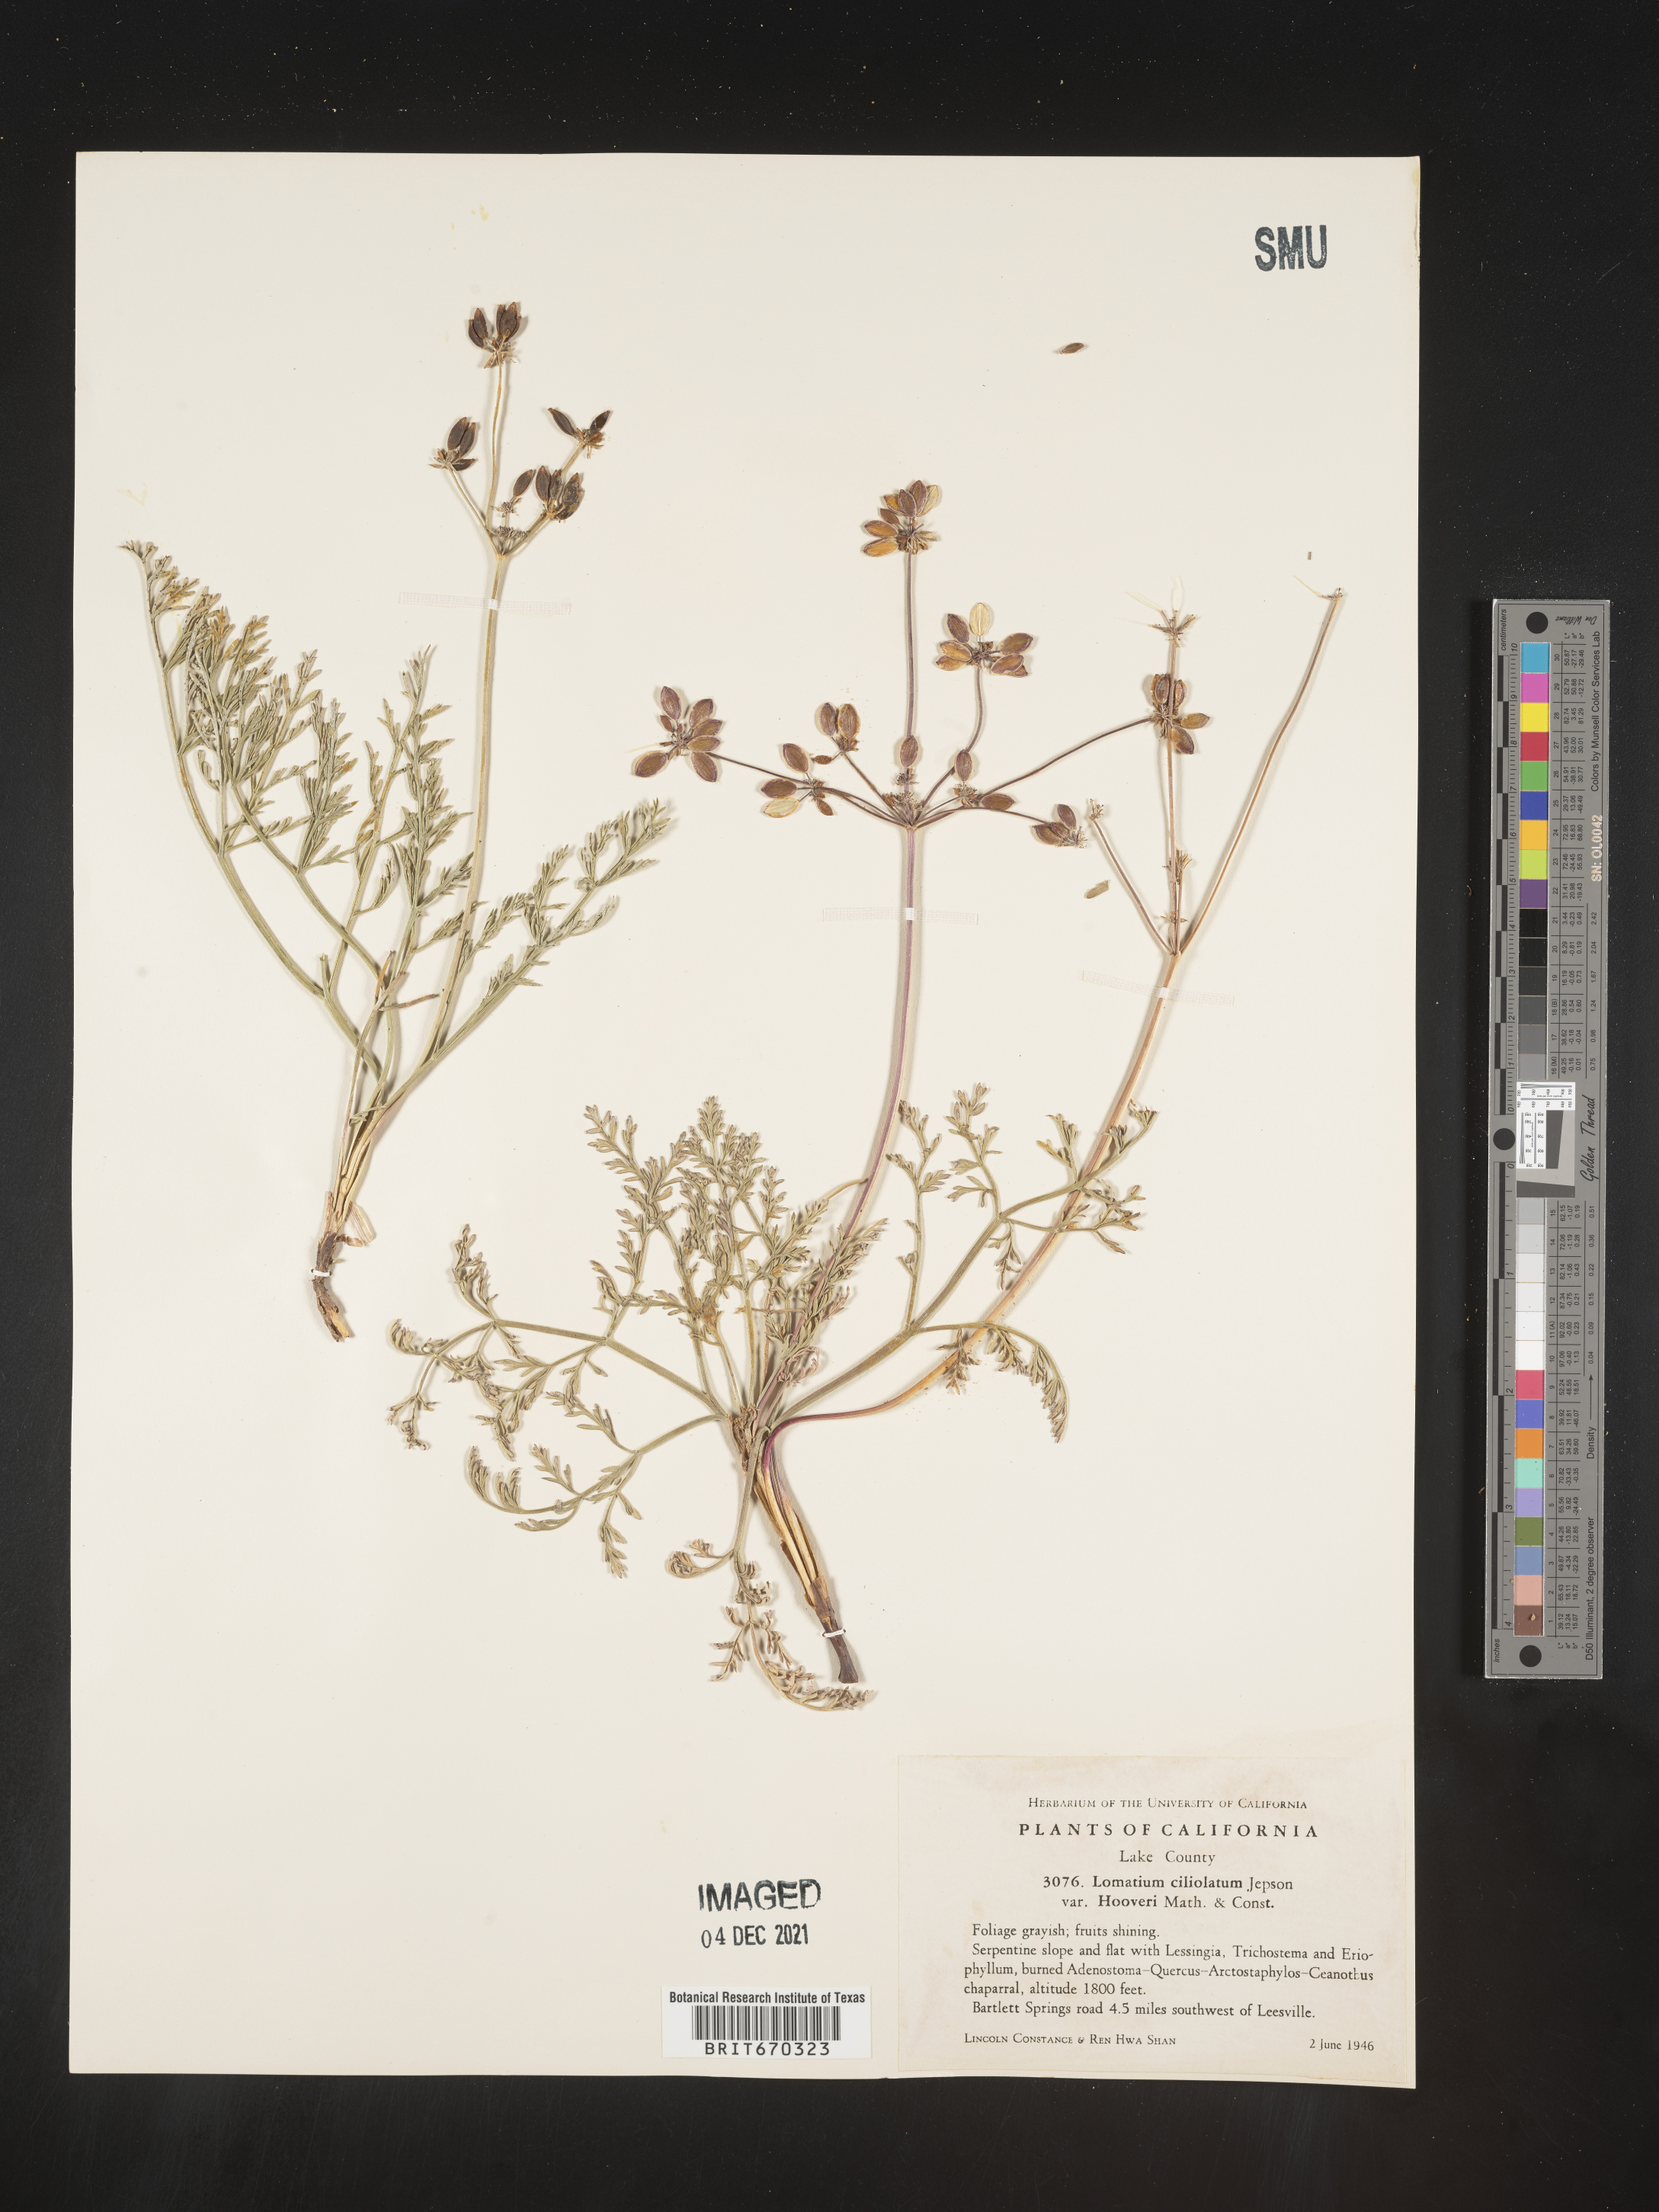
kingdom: Plantae
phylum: Tracheophyta
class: Magnoliopsida
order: Apiales
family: Apiaceae
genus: Lomatium
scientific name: Lomatium
